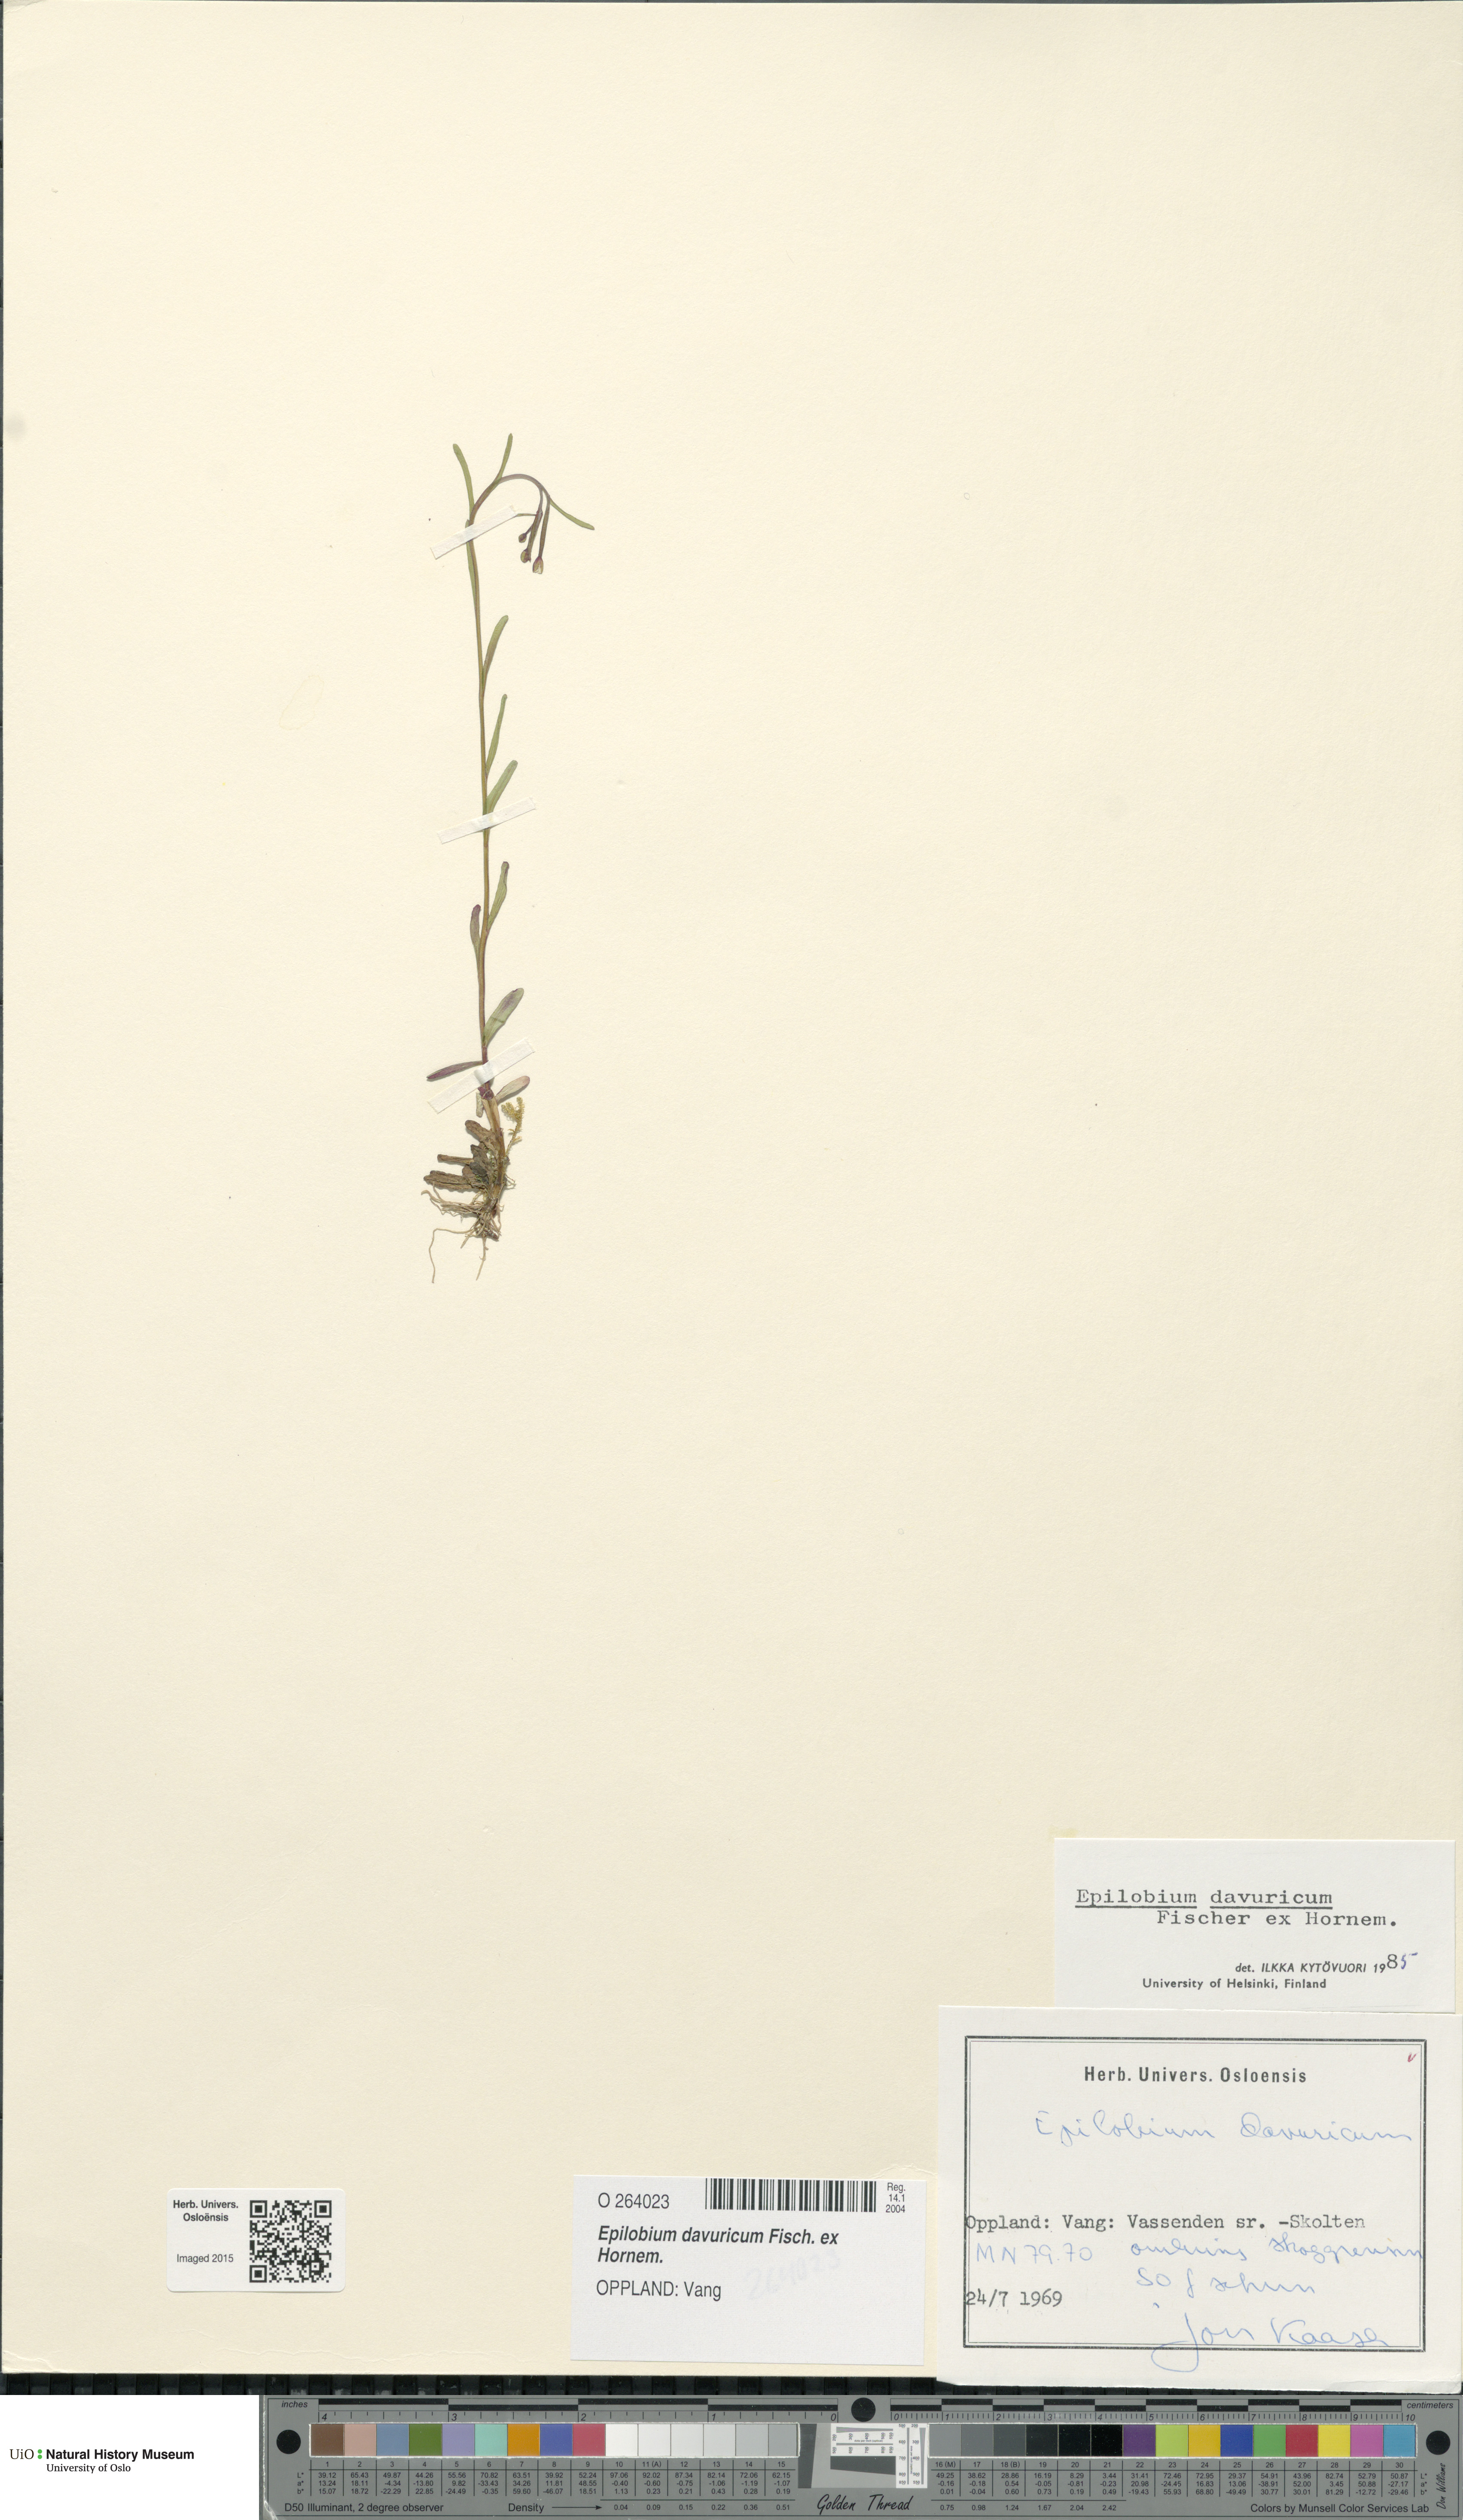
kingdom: Plantae
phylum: Tracheophyta
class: Magnoliopsida
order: Myrtales
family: Onagraceae
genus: Epilobium
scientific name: Epilobium davuricum
